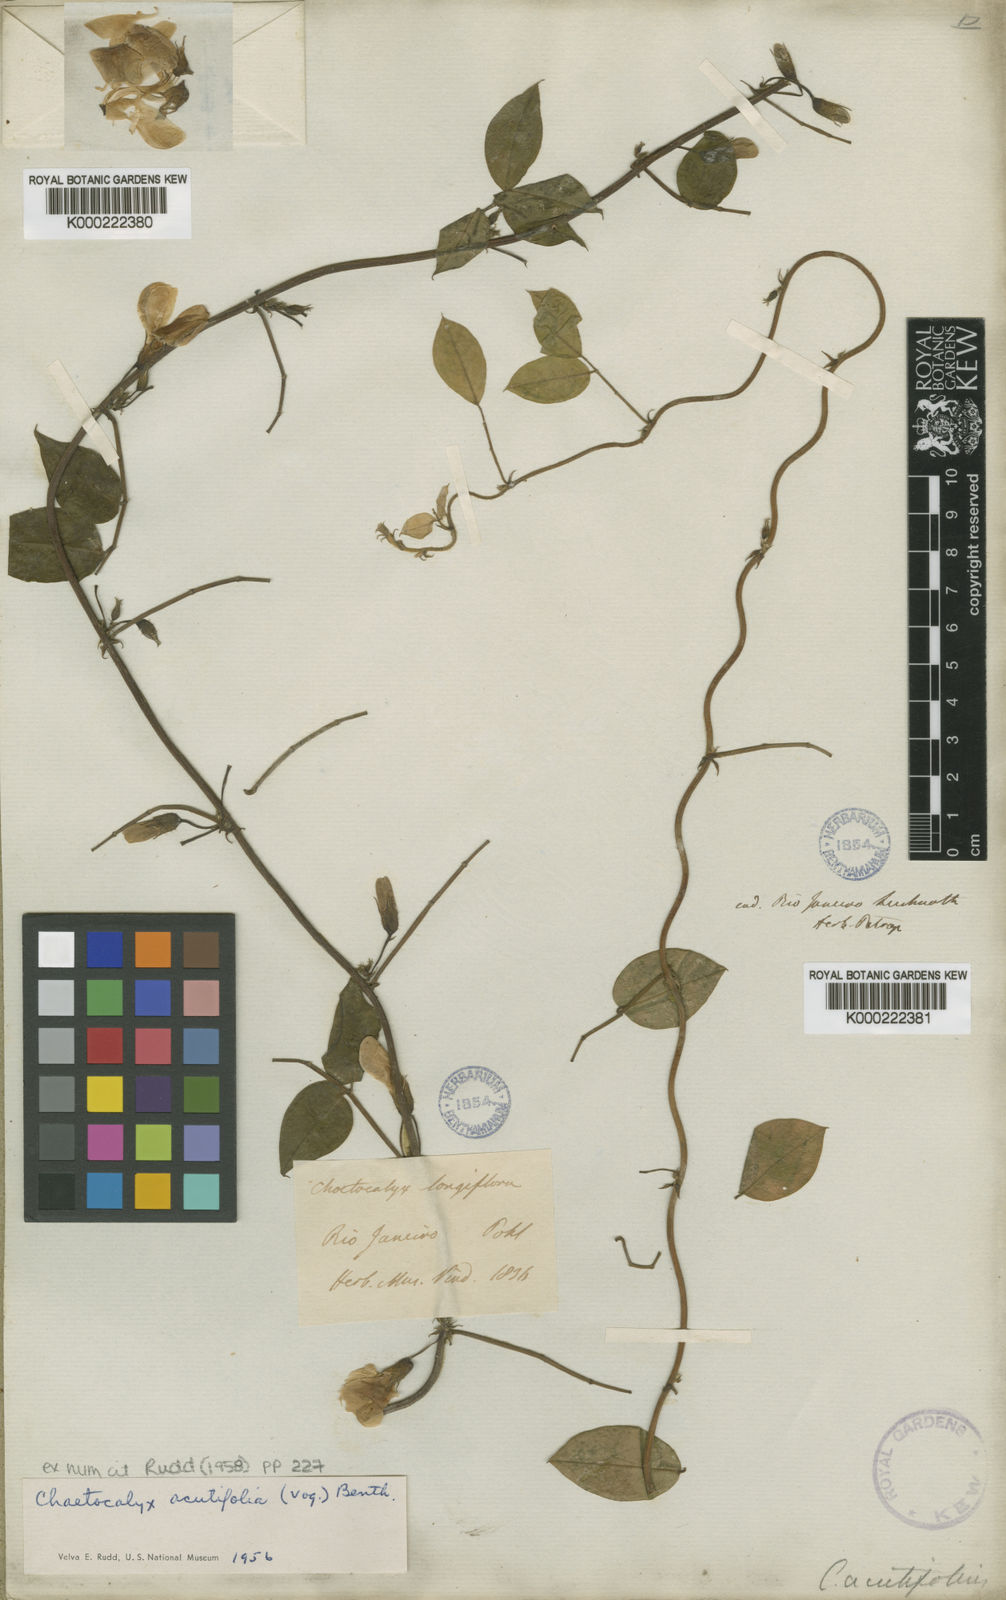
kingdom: Plantae
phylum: Tracheophyta
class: Magnoliopsida
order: Fabales
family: Fabaceae
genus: Nissolia
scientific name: Nissolia acutifolia
